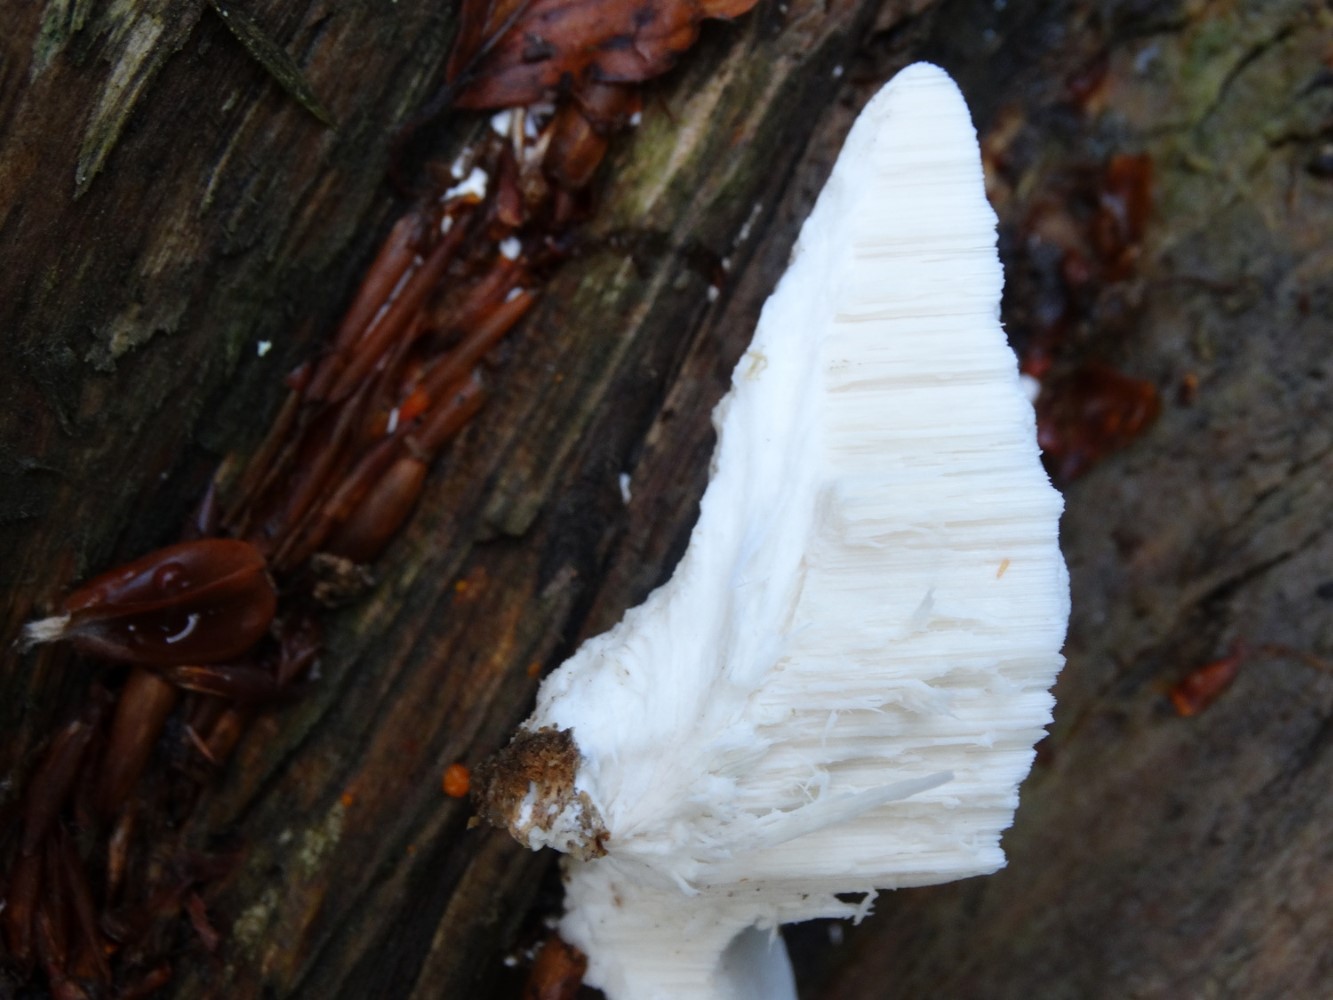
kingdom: Fungi
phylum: Basidiomycota
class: Agaricomycetes
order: Polyporales
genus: Amaropostia
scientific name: Amaropostia stiptica
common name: bitter kødporesvamp
